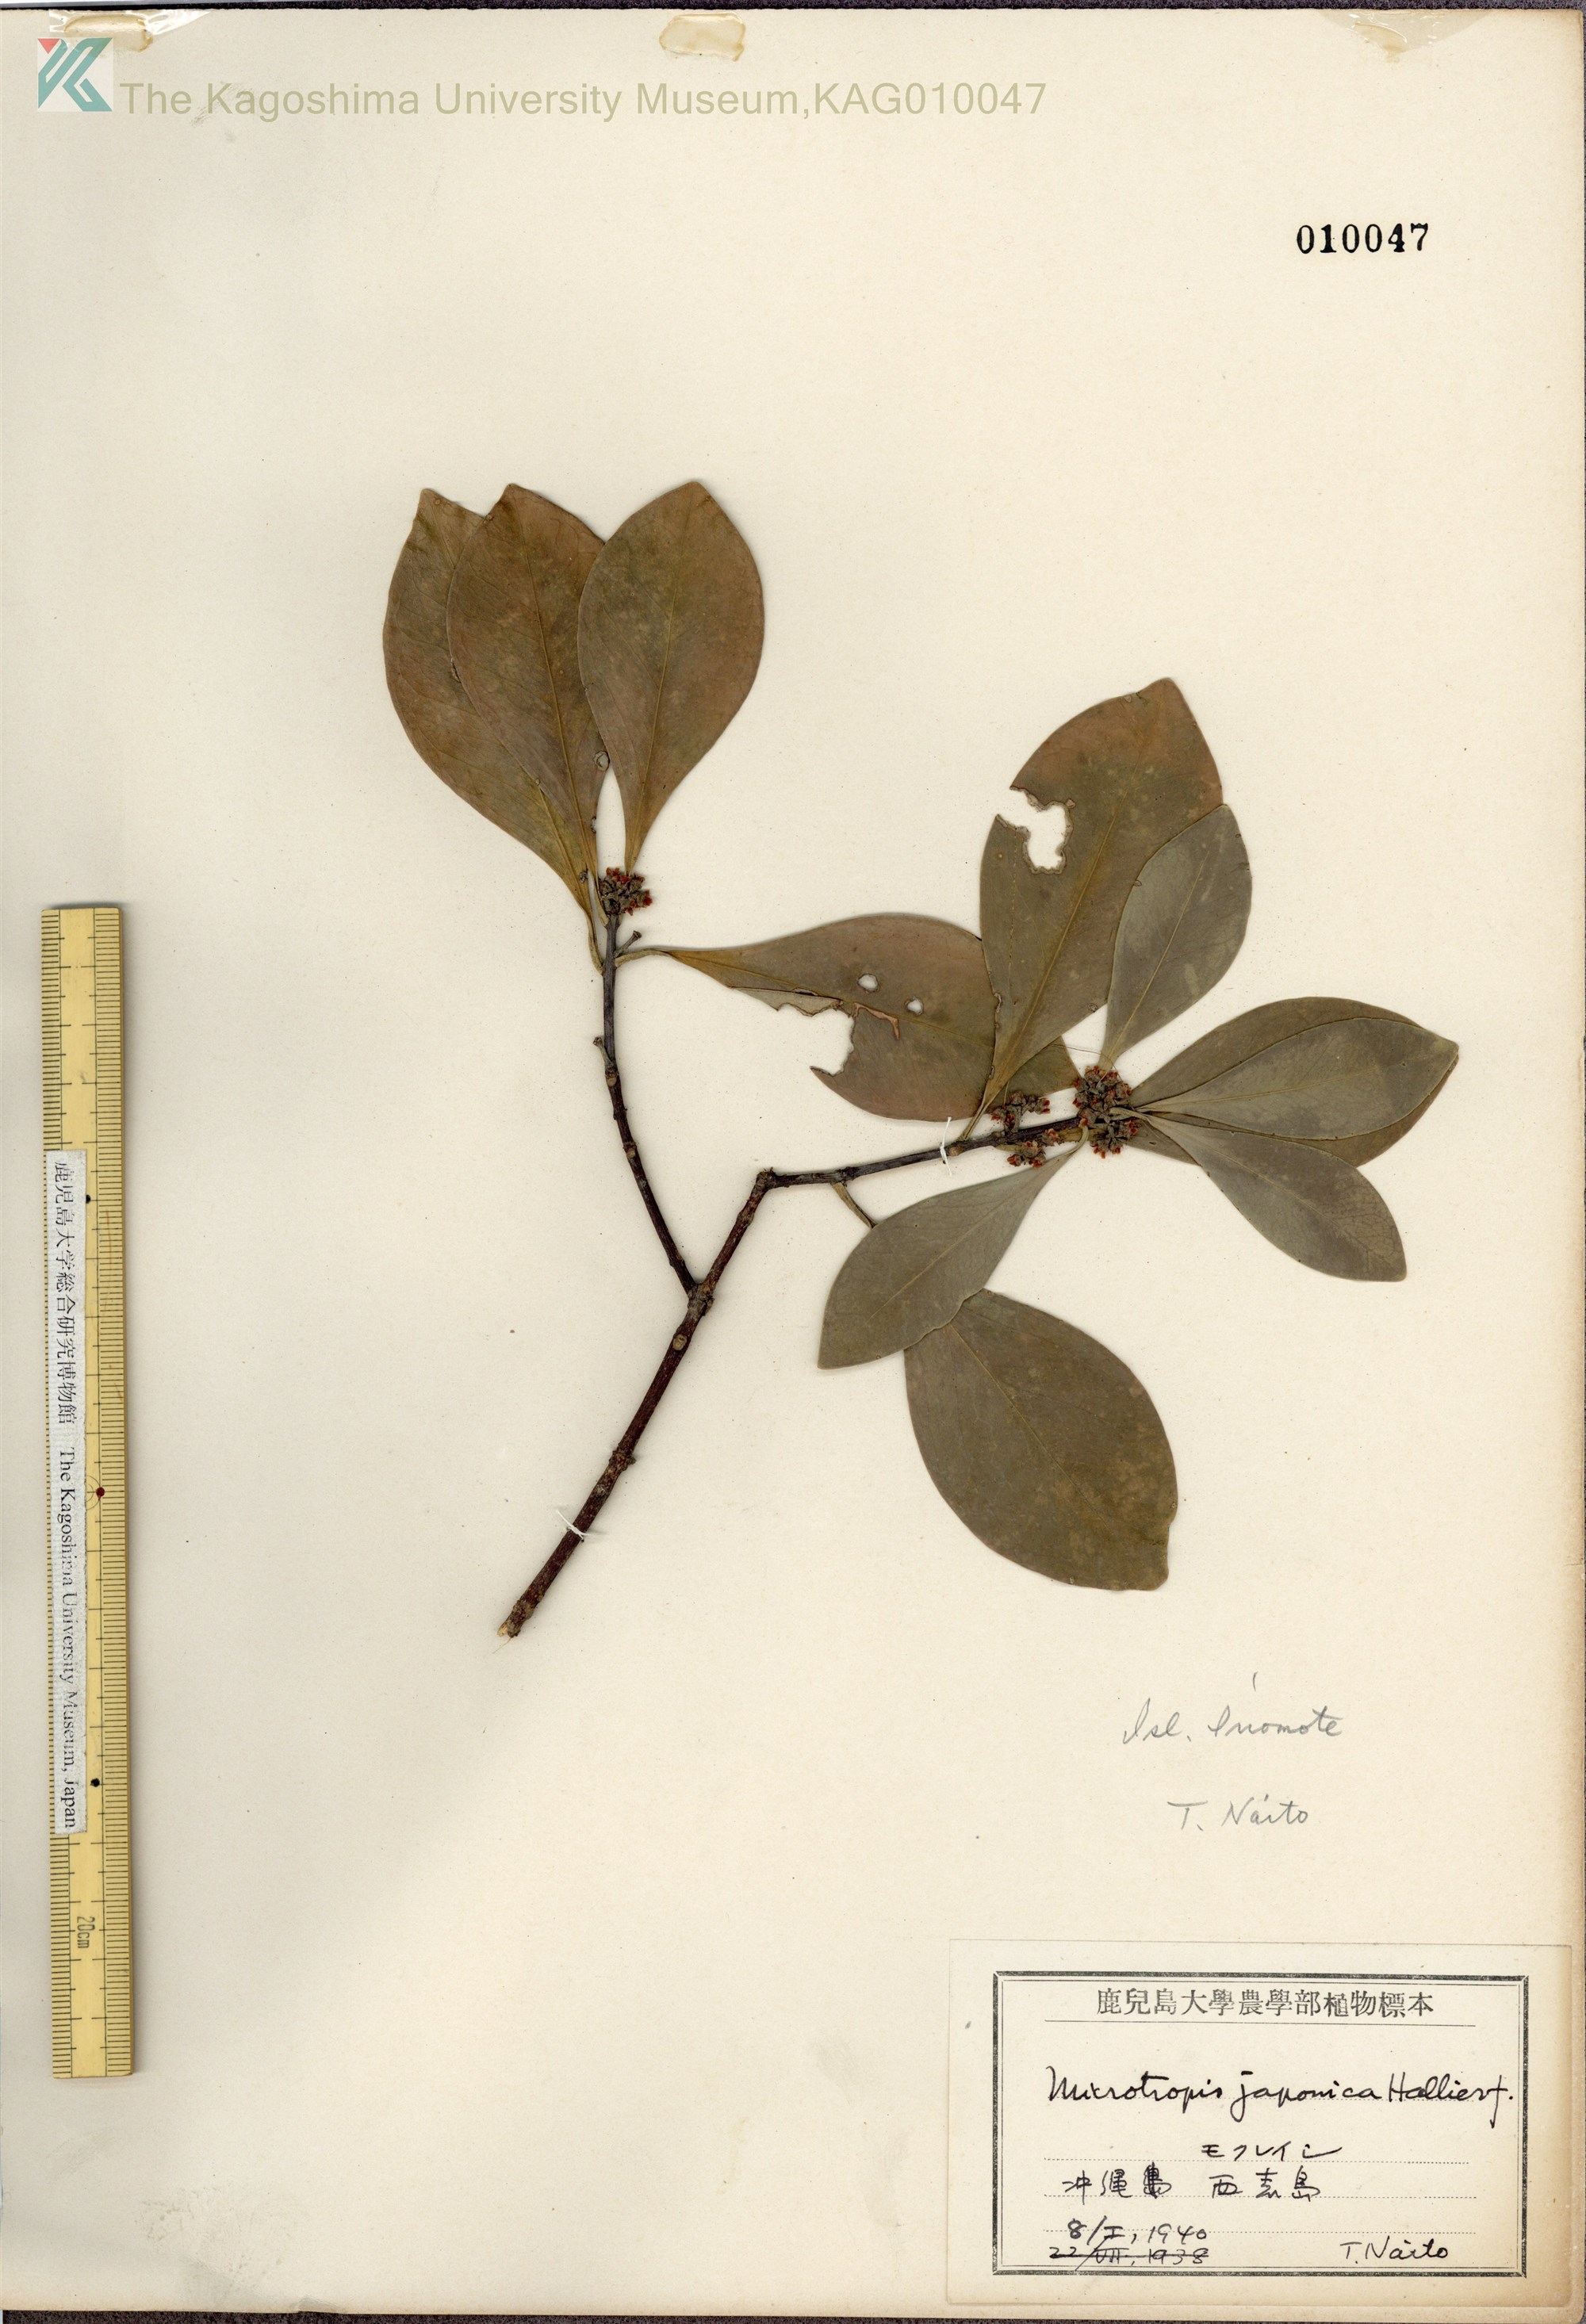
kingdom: Plantae
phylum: Tracheophyta
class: Magnoliopsida
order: Celastrales
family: Celastraceae
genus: Microtropis
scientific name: Microtropis japonica
